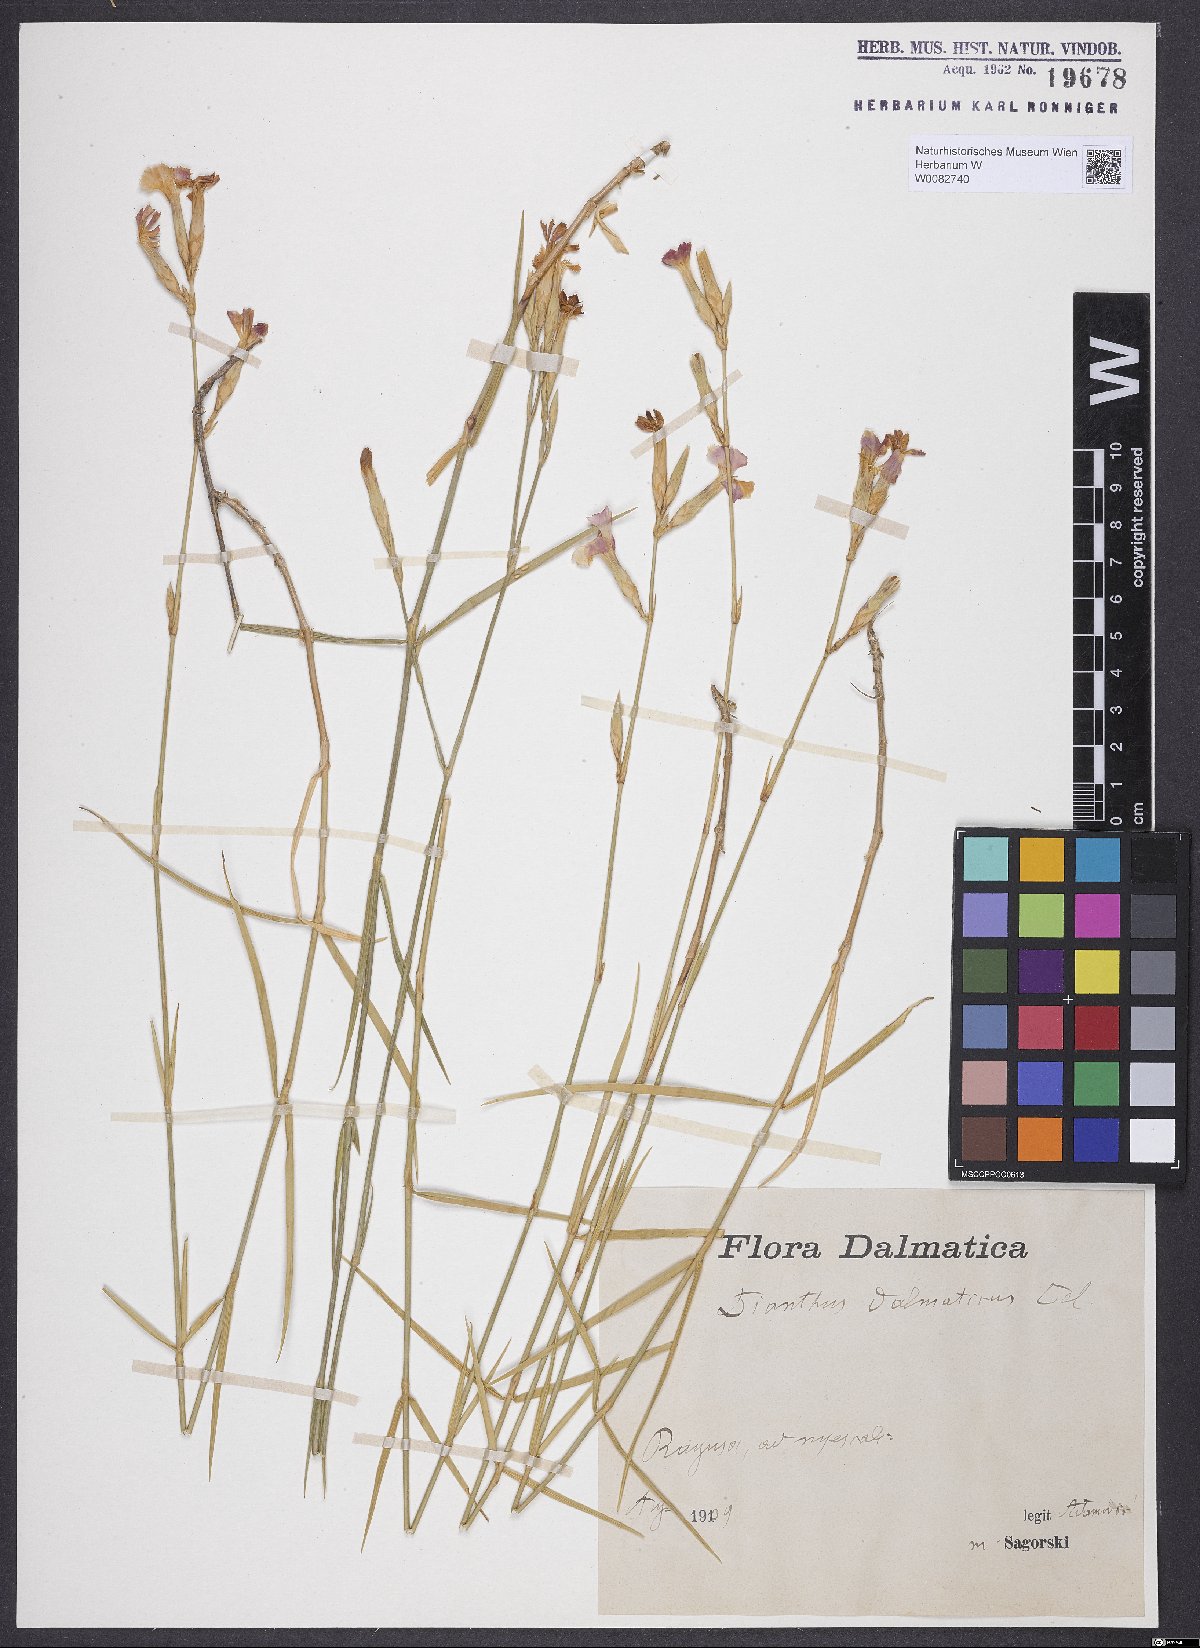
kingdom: Plantae
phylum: Tracheophyta
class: Magnoliopsida
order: Caryophyllales
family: Caryophyllaceae
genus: Dianthus
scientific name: Dianthus ciliatus
